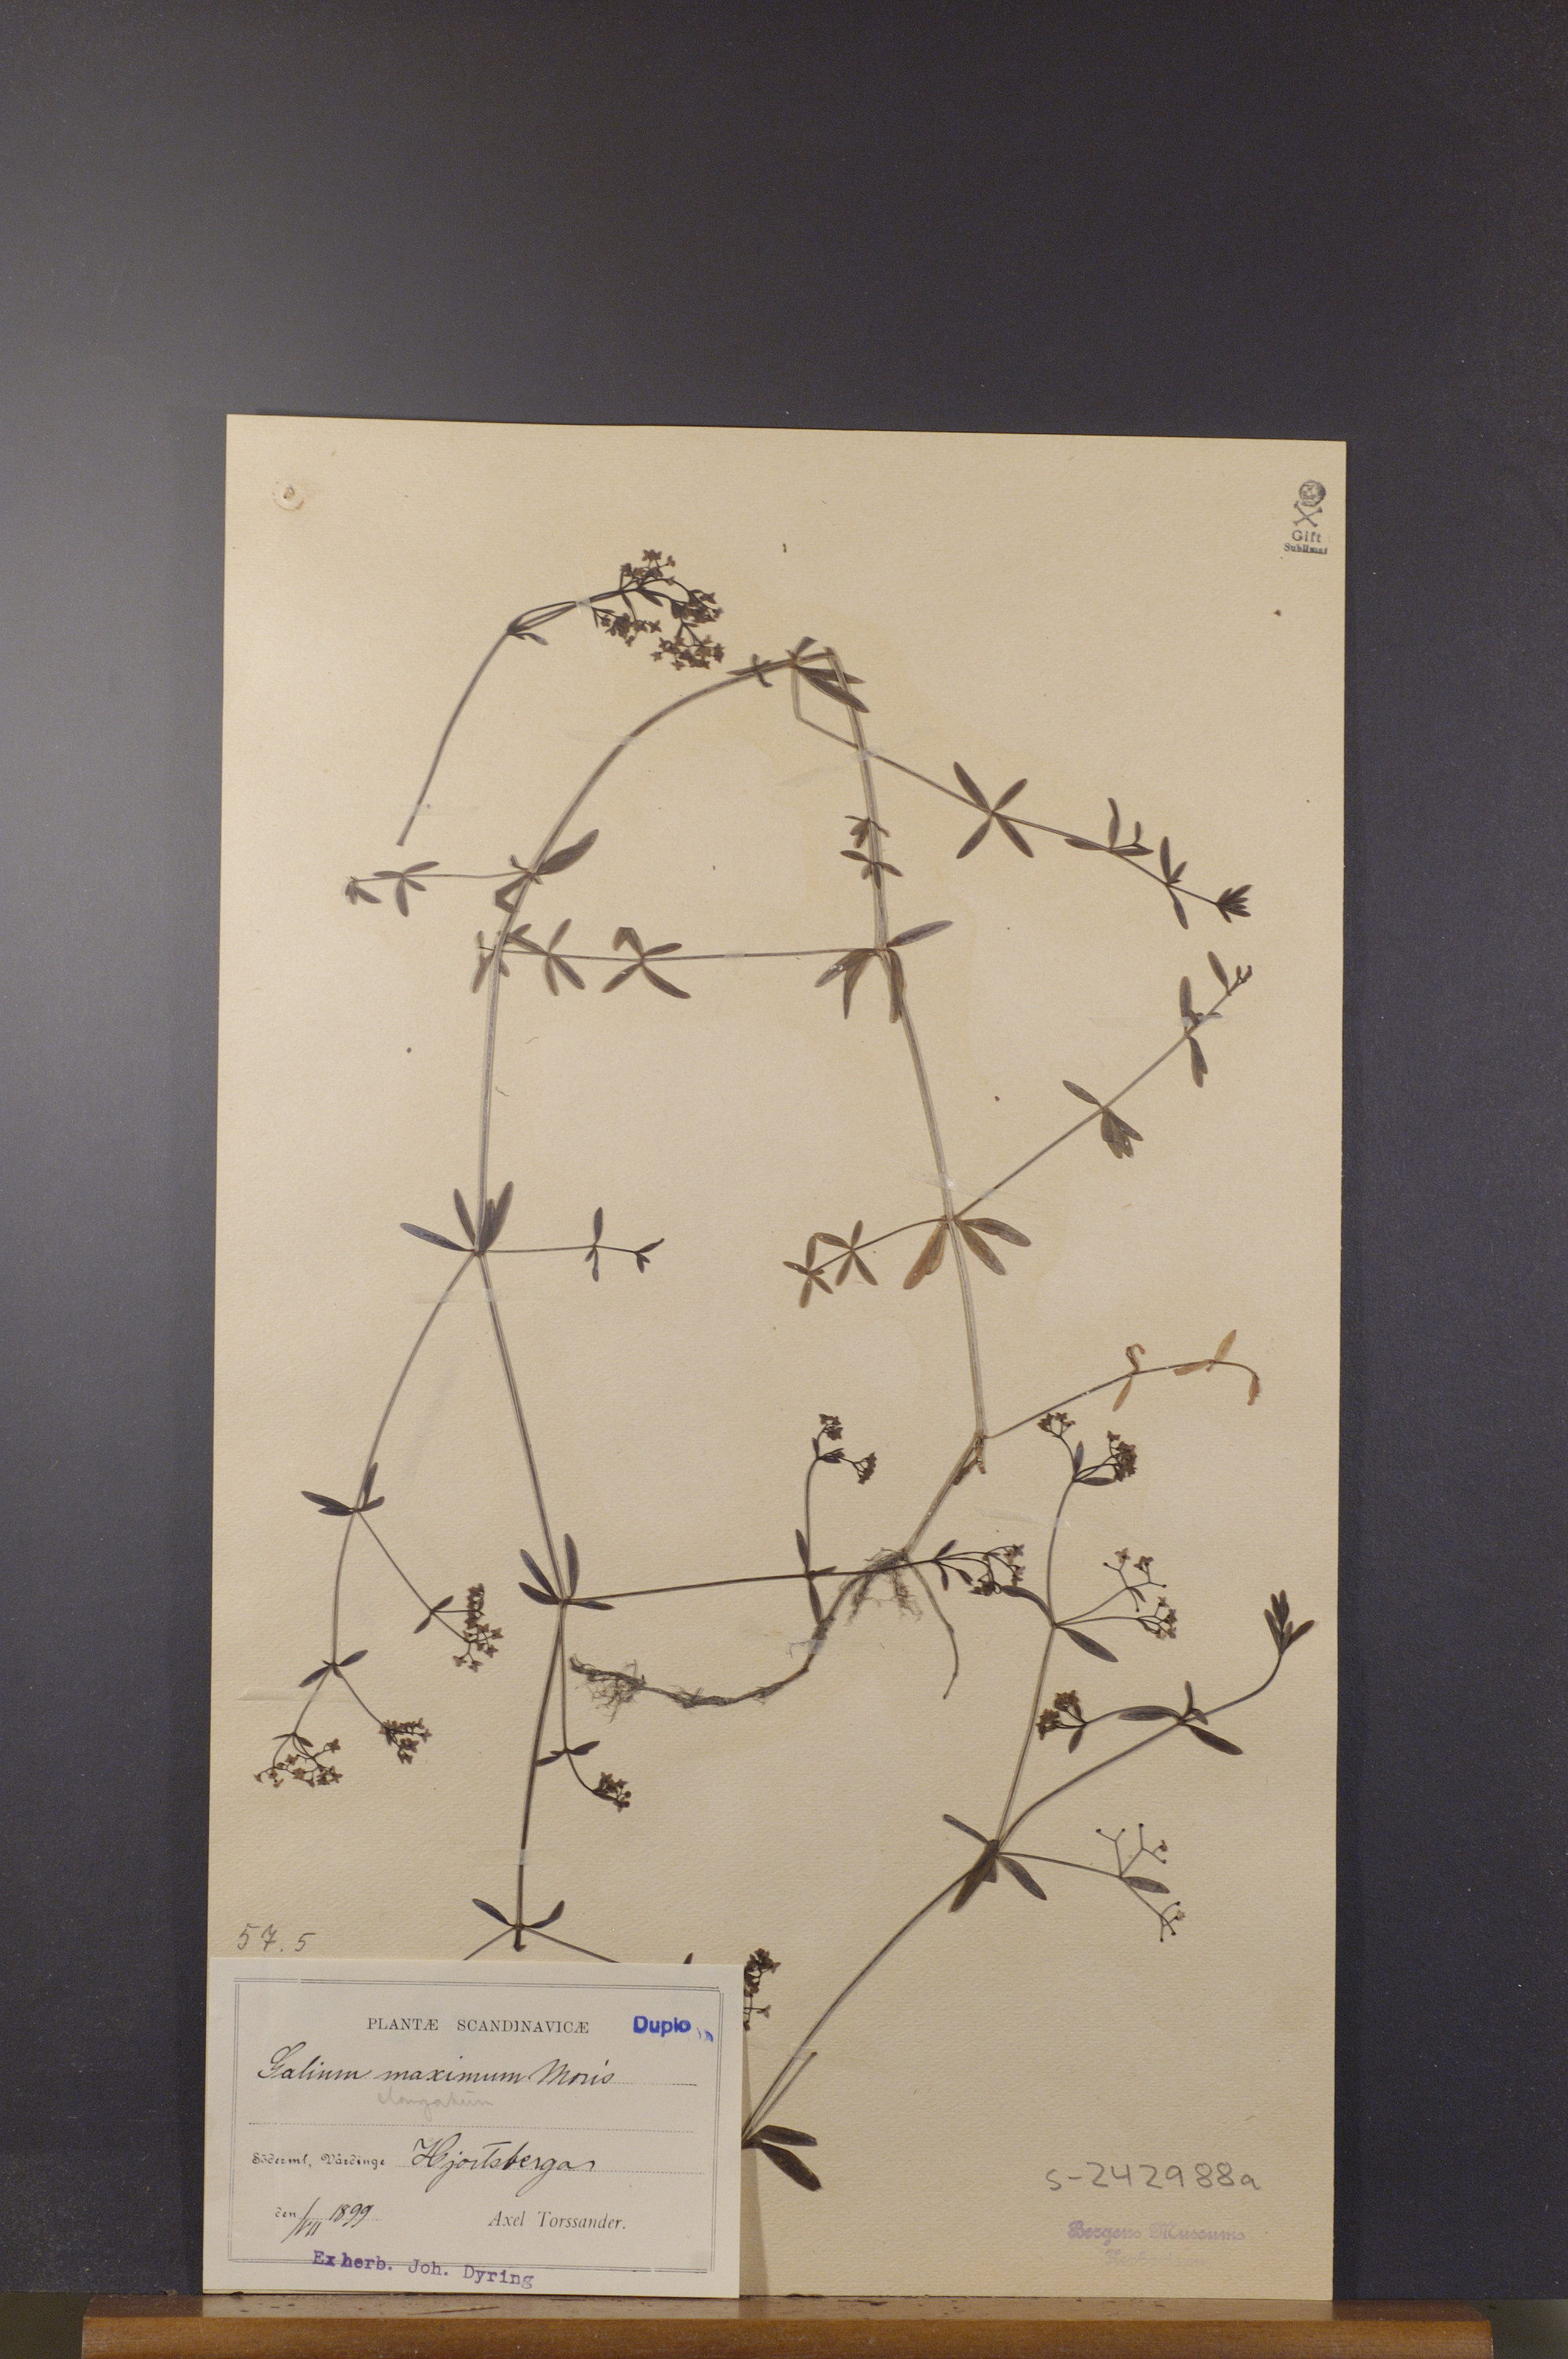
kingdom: Plantae
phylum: Tracheophyta
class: Magnoliopsida
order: Gentianales
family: Rubiaceae
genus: Galium
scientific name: Galium elongatum
